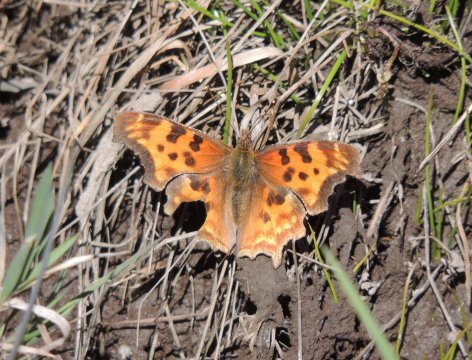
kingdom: Animalia
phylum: Arthropoda
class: Insecta
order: Lepidoptera
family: Nymphalidae
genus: Polygonia
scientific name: Polygonia satyrus
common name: Satyr Comma
